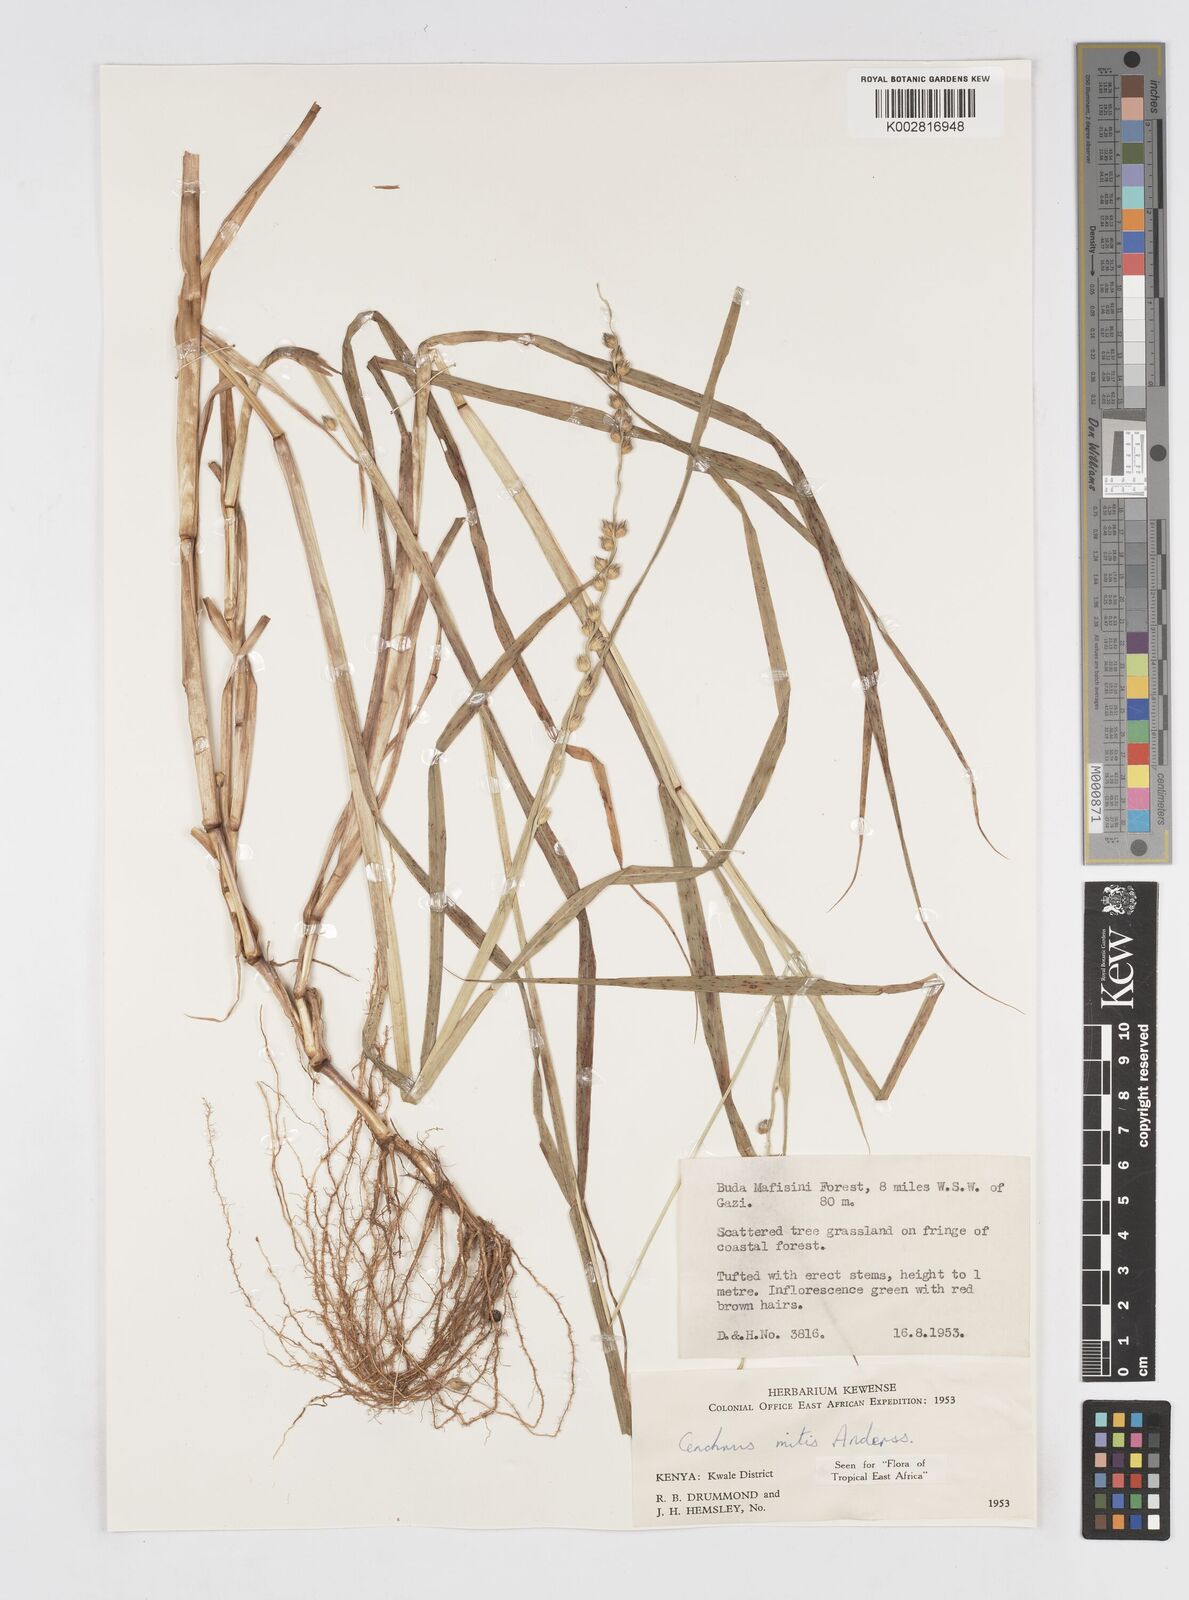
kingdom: Plantae
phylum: Tracheophyta
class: Liliopsida
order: Poales
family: Poaceae
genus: Cenchrus
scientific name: Cenchrus mitis
